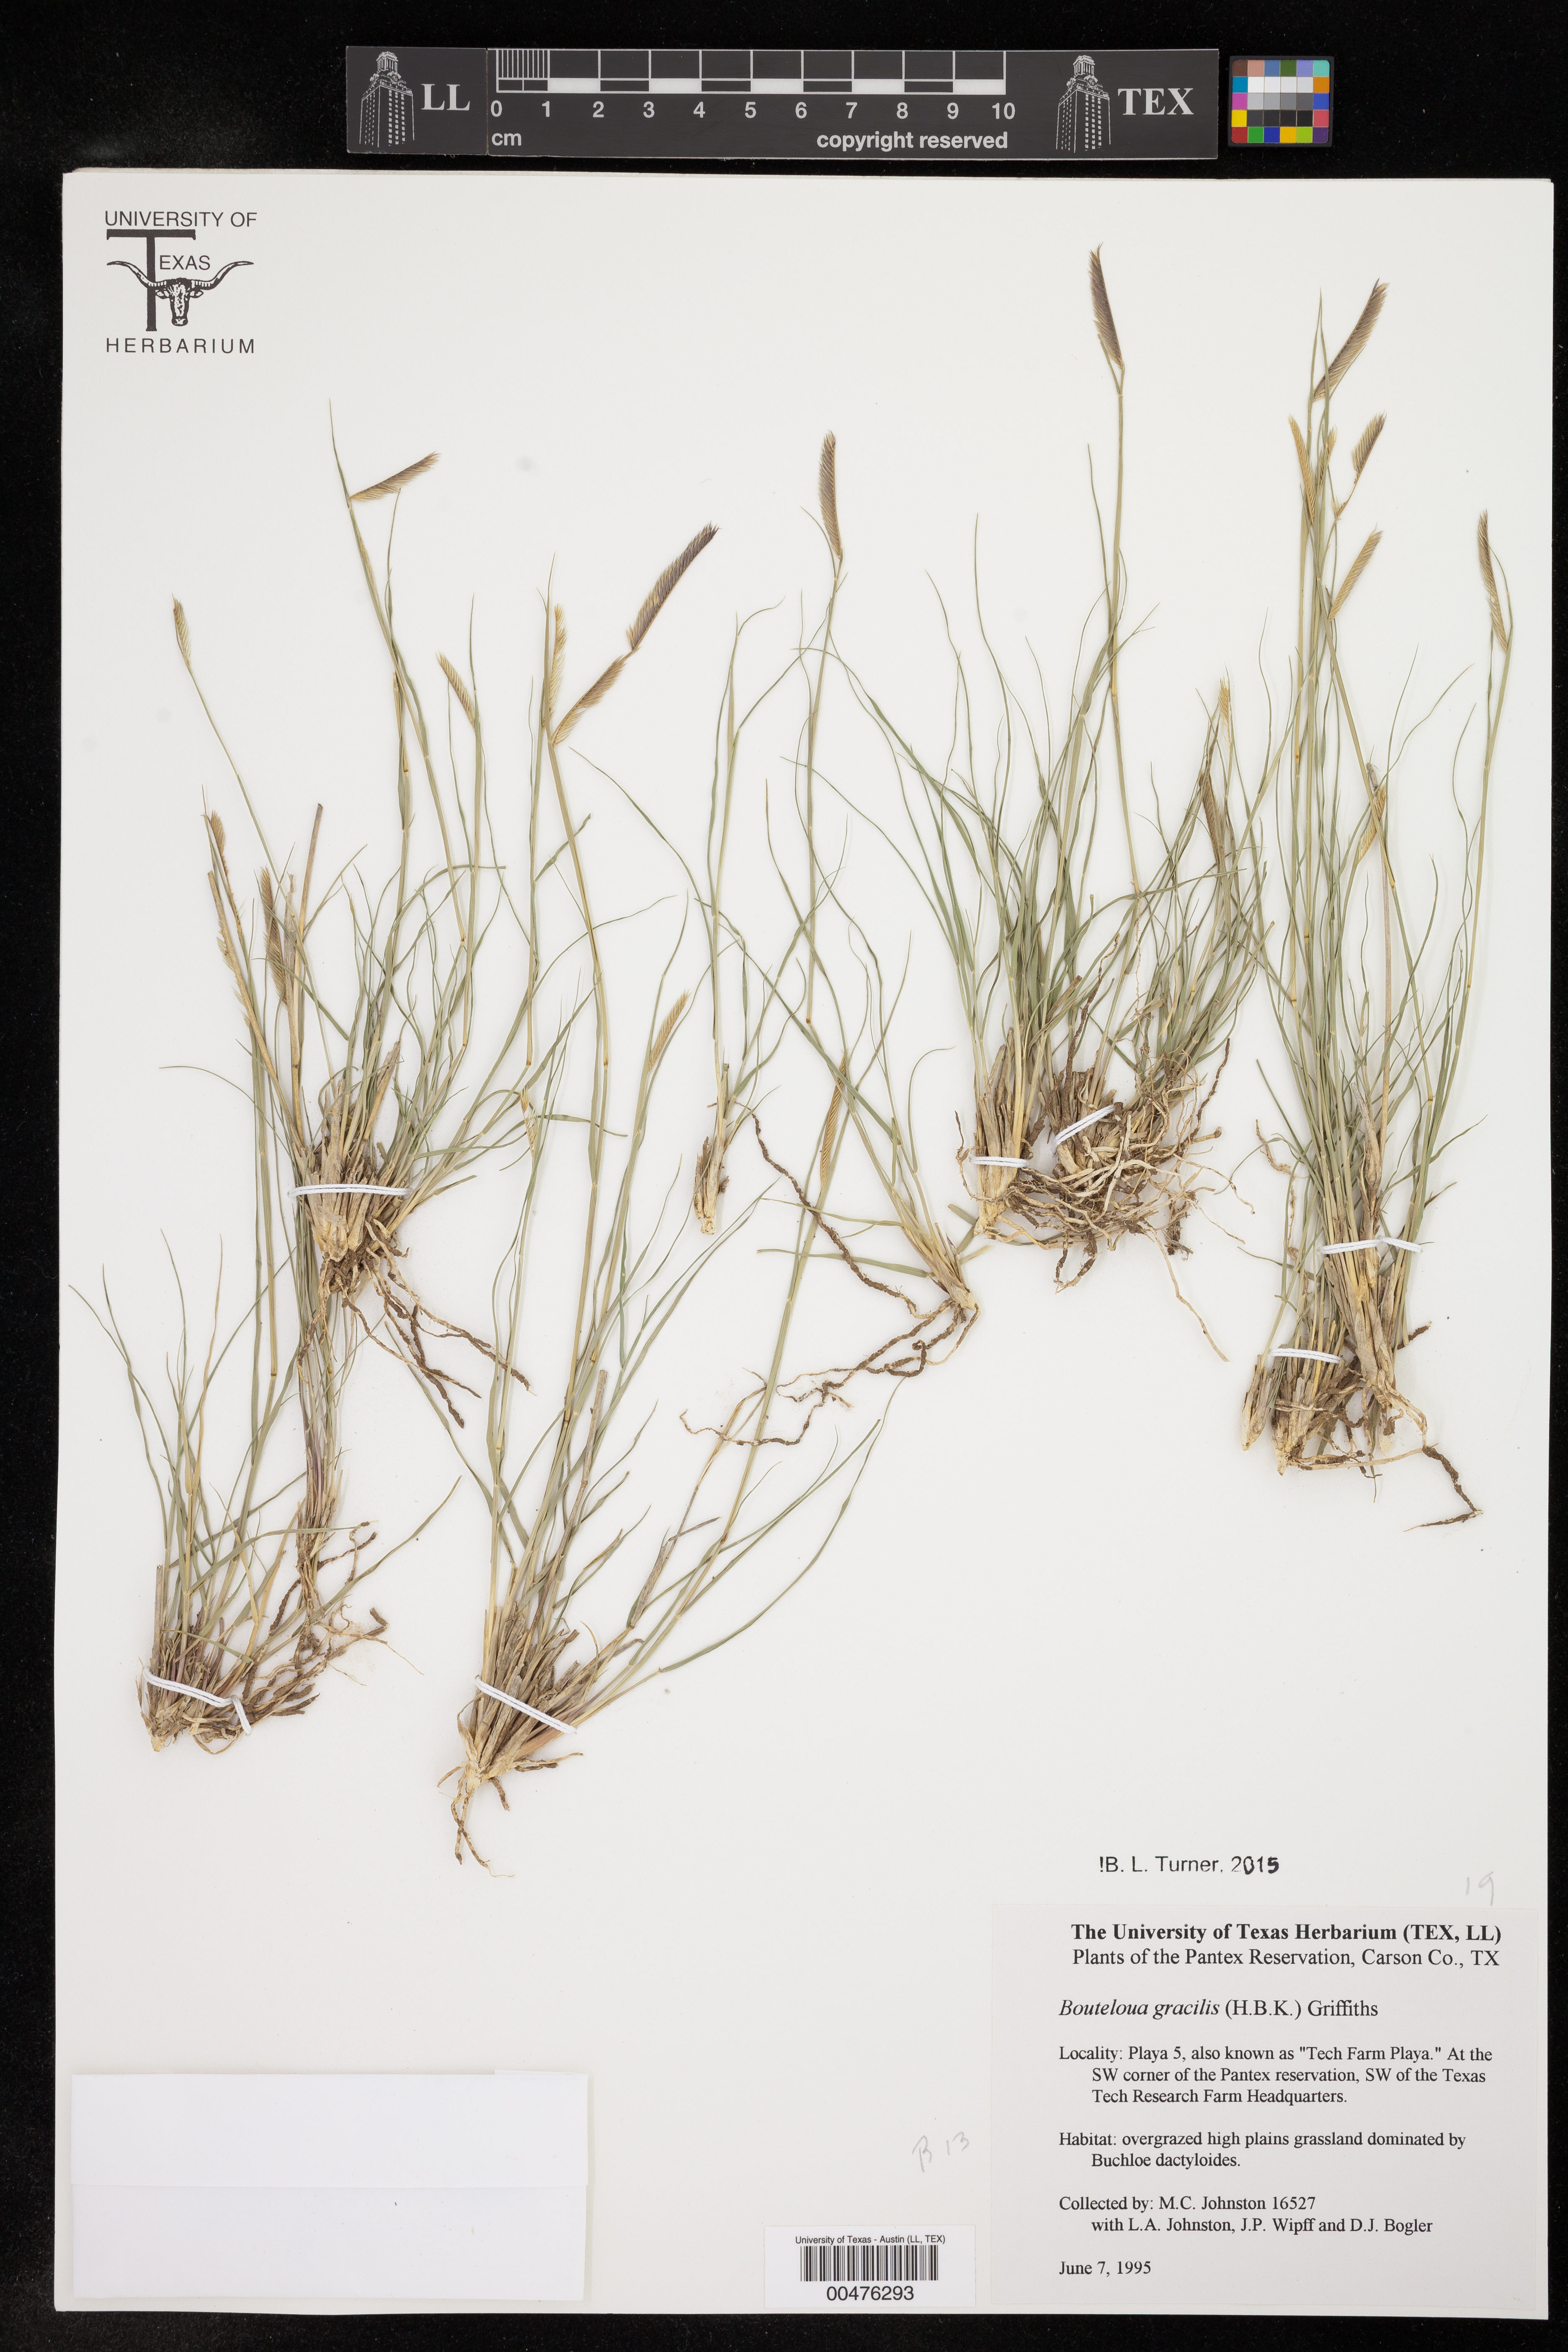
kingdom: Plantae
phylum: Tracheophyta
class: Liliopsida
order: Poales
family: Poaceae
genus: Bouteloua
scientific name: Bouteloua gracilis
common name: Blue grama
